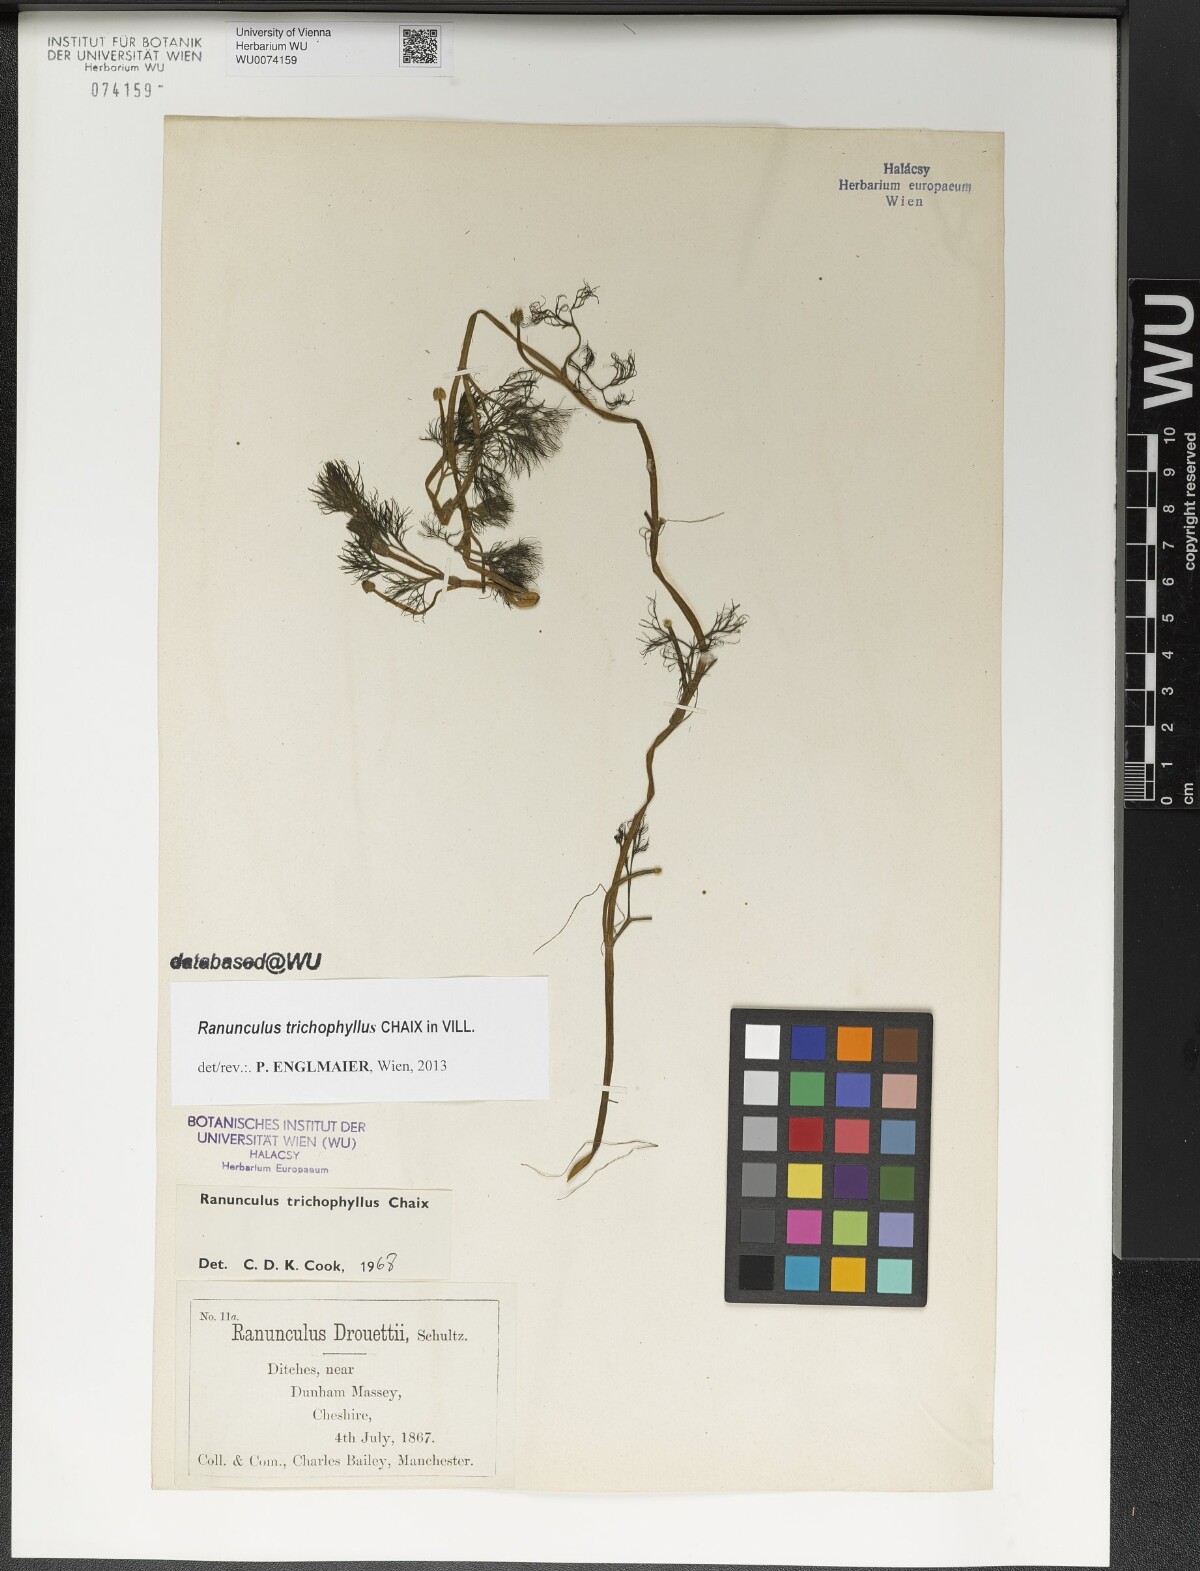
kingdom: Plantae
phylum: Tracheophyta
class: Magnoliopsida
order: Ranunculales
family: Ranunculaceae
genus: Ranunculus
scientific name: Ranunculus trichophyllus
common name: Thread-leaved water-crowfoot
